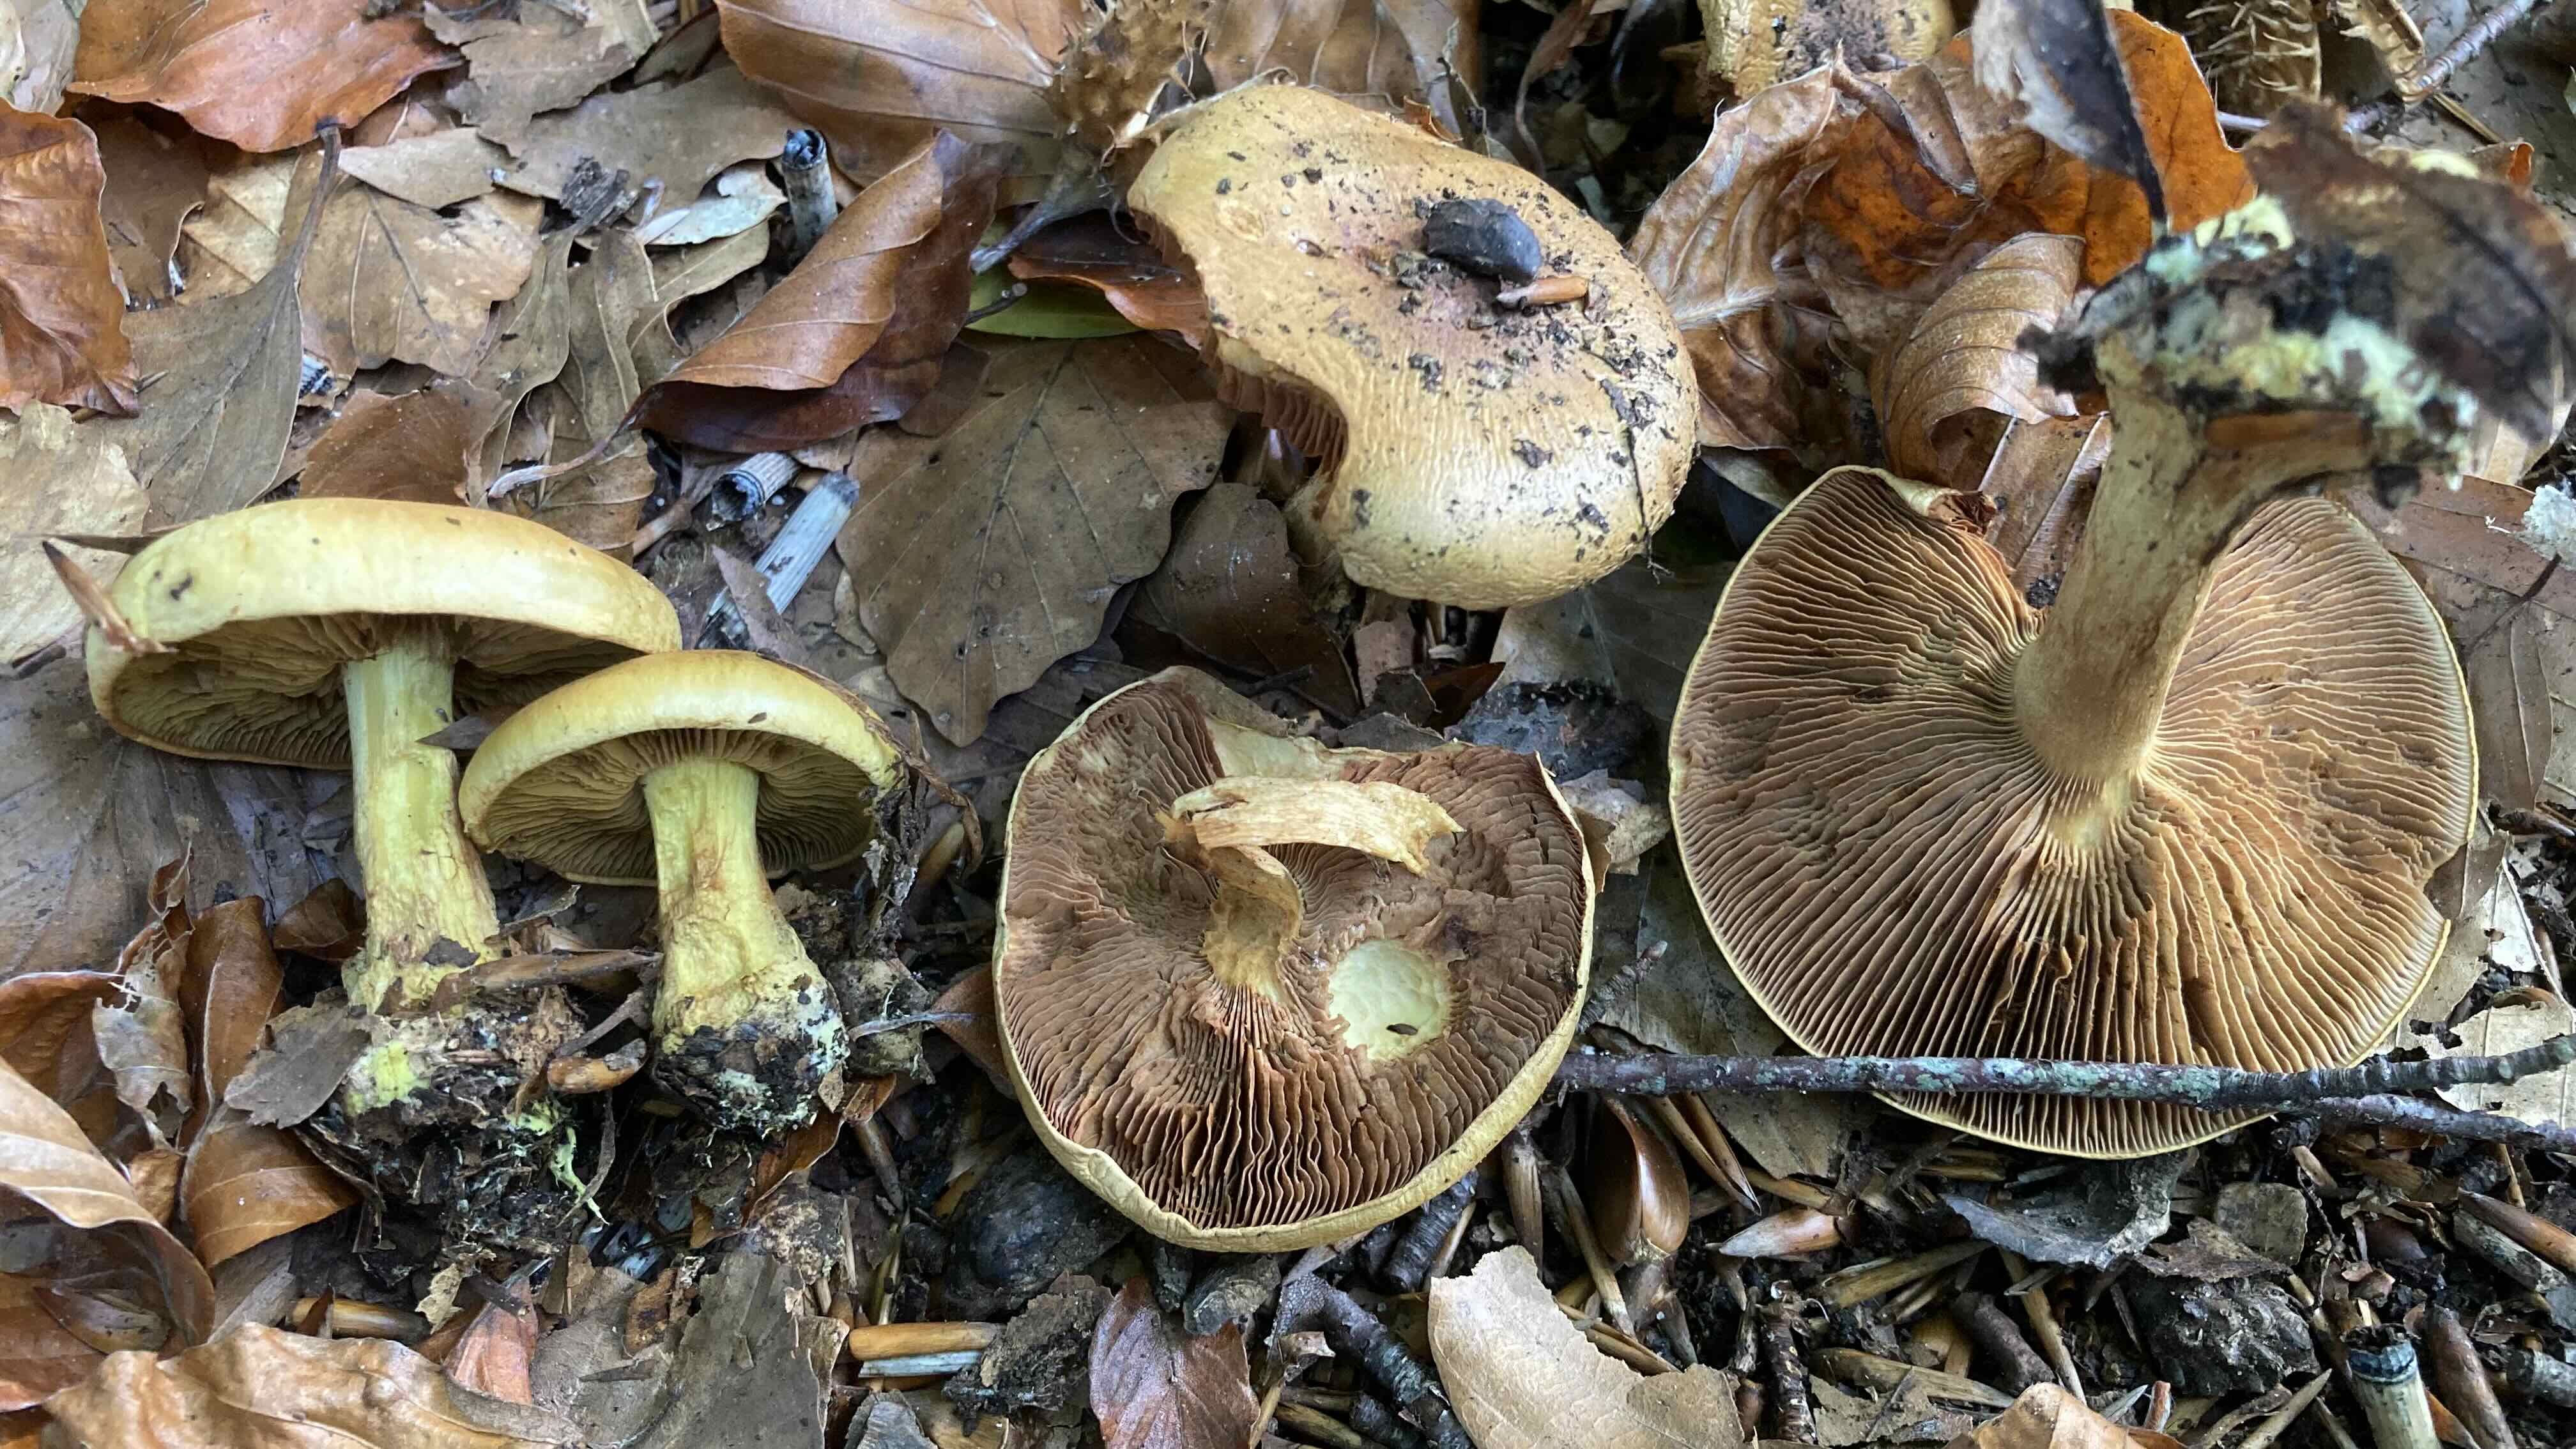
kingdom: Fungi
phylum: Basidiomycota
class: Agaricomycetes
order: Agaricales
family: Cortinariaceae
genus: Calonarius
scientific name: Calonarius
